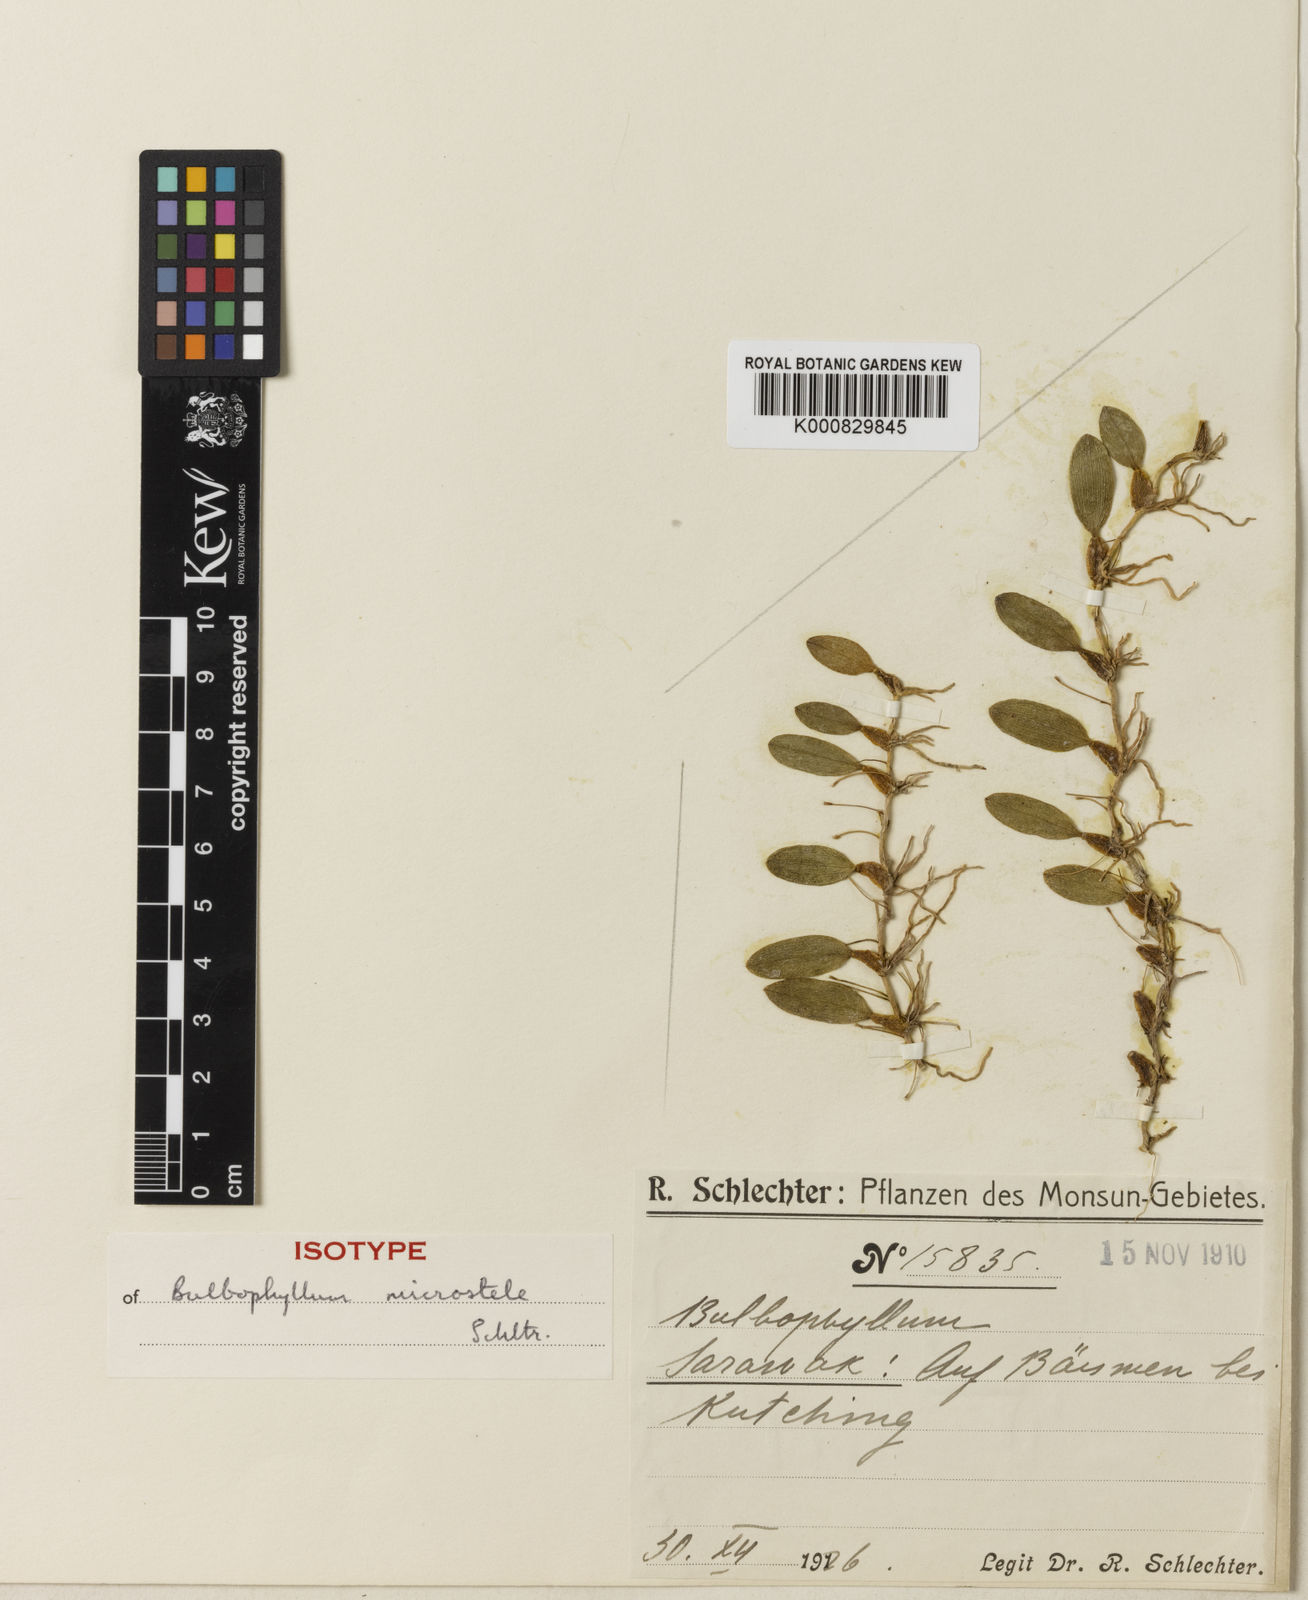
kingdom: Plantae
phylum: Tracheophyta
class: Liliopsida
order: Asparagales
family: Orchidaceae
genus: Bulbophyllum
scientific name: Bulbophyllum tenuifolium
